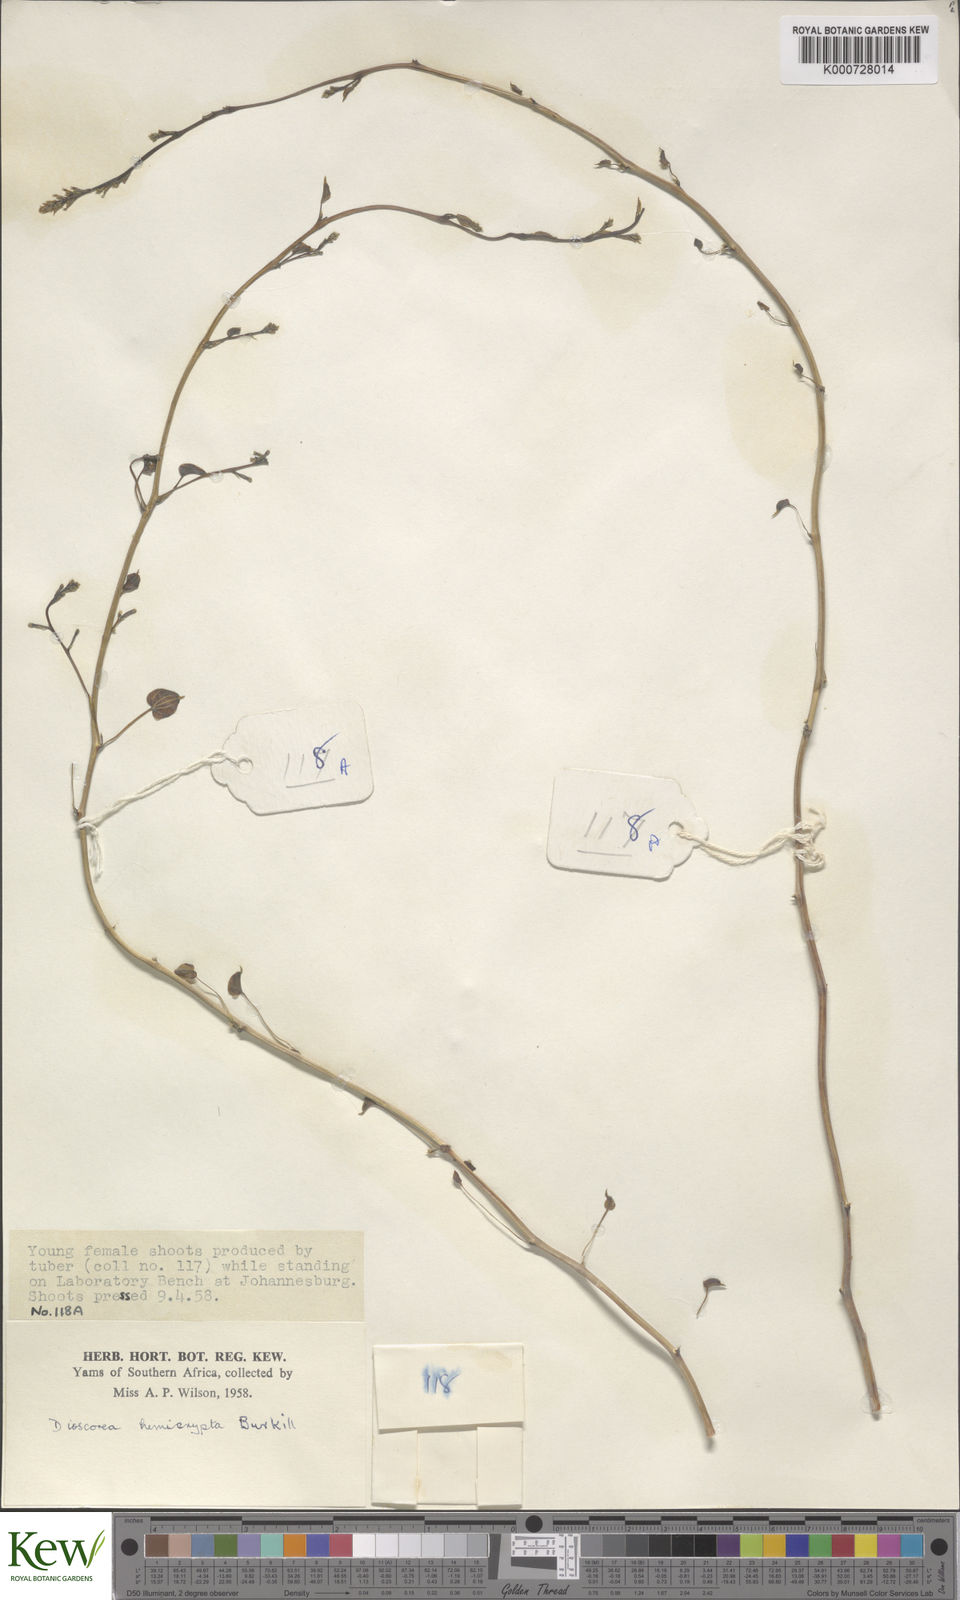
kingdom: Plantae
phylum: Tracheophyta
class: Liliopsida
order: Dioscoreales
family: Dioscoreaceae
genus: Dioscorea
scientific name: Dioscorea hemicrypta
